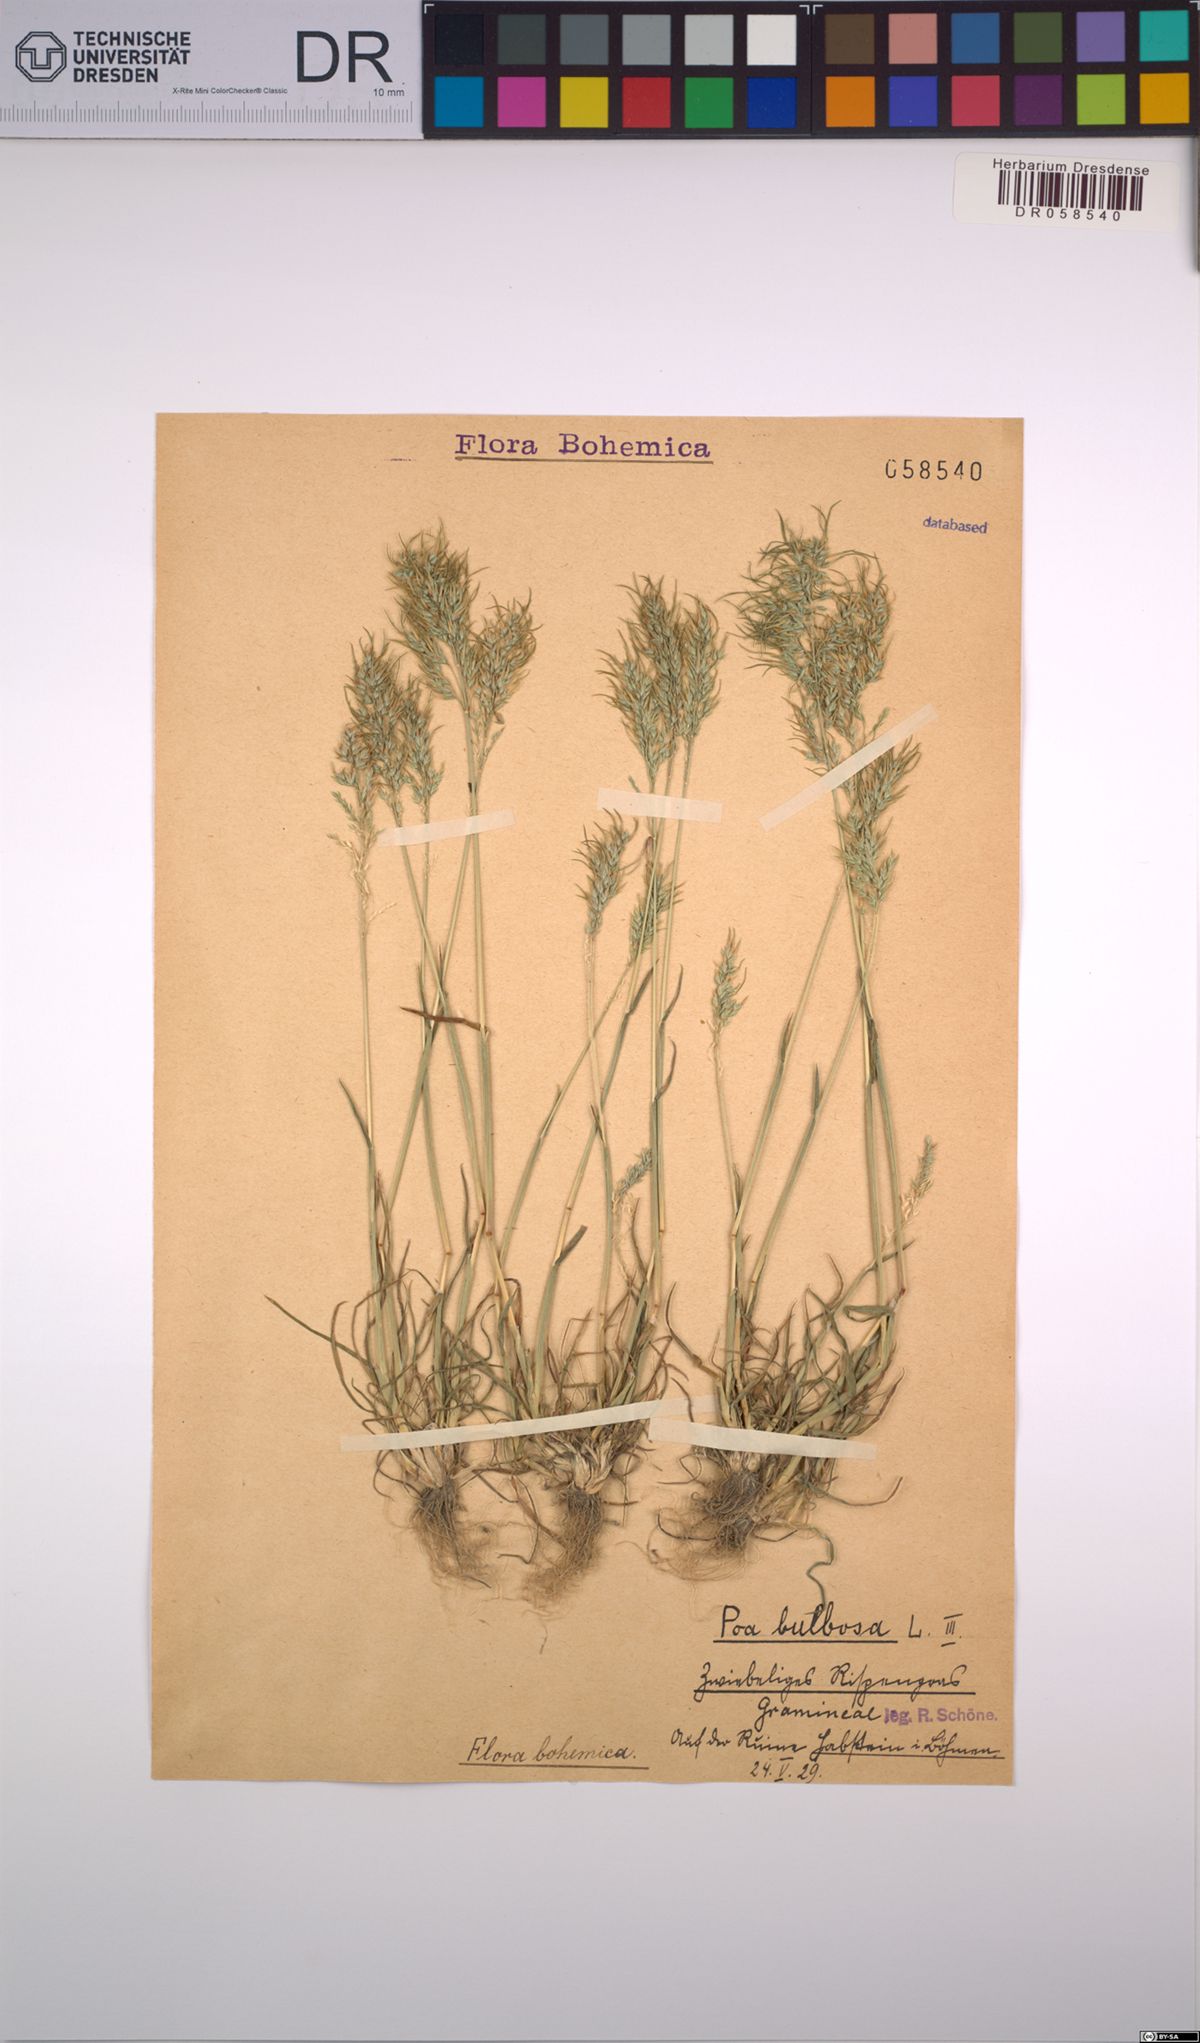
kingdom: Plantae
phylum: Tracheophyta
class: Liliopsida
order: Poales
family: Poaceae
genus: Poa
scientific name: Poa bulbosa
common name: Bulbous bluegrass
